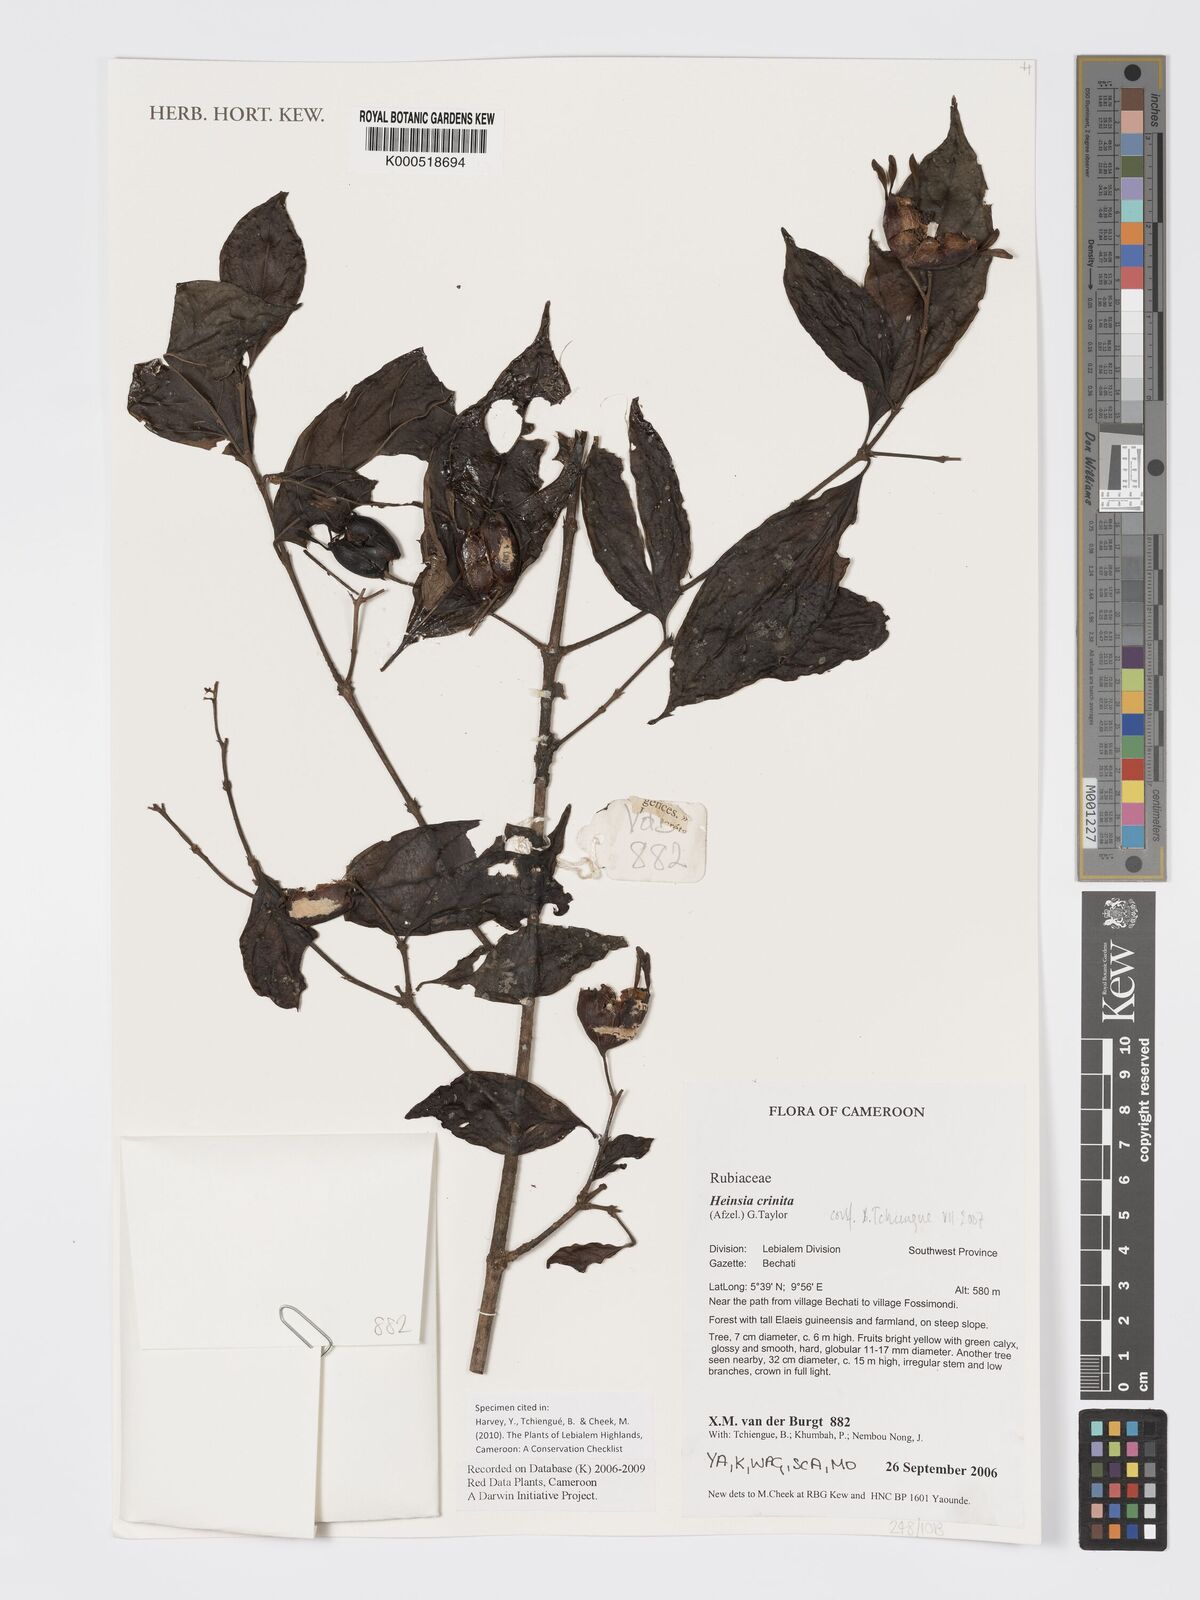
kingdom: Plantae
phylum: Tracheophyta
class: Magnoliopsida
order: Gentianales
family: Rubiaceae
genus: Heinsia
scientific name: Heinsia crinita
